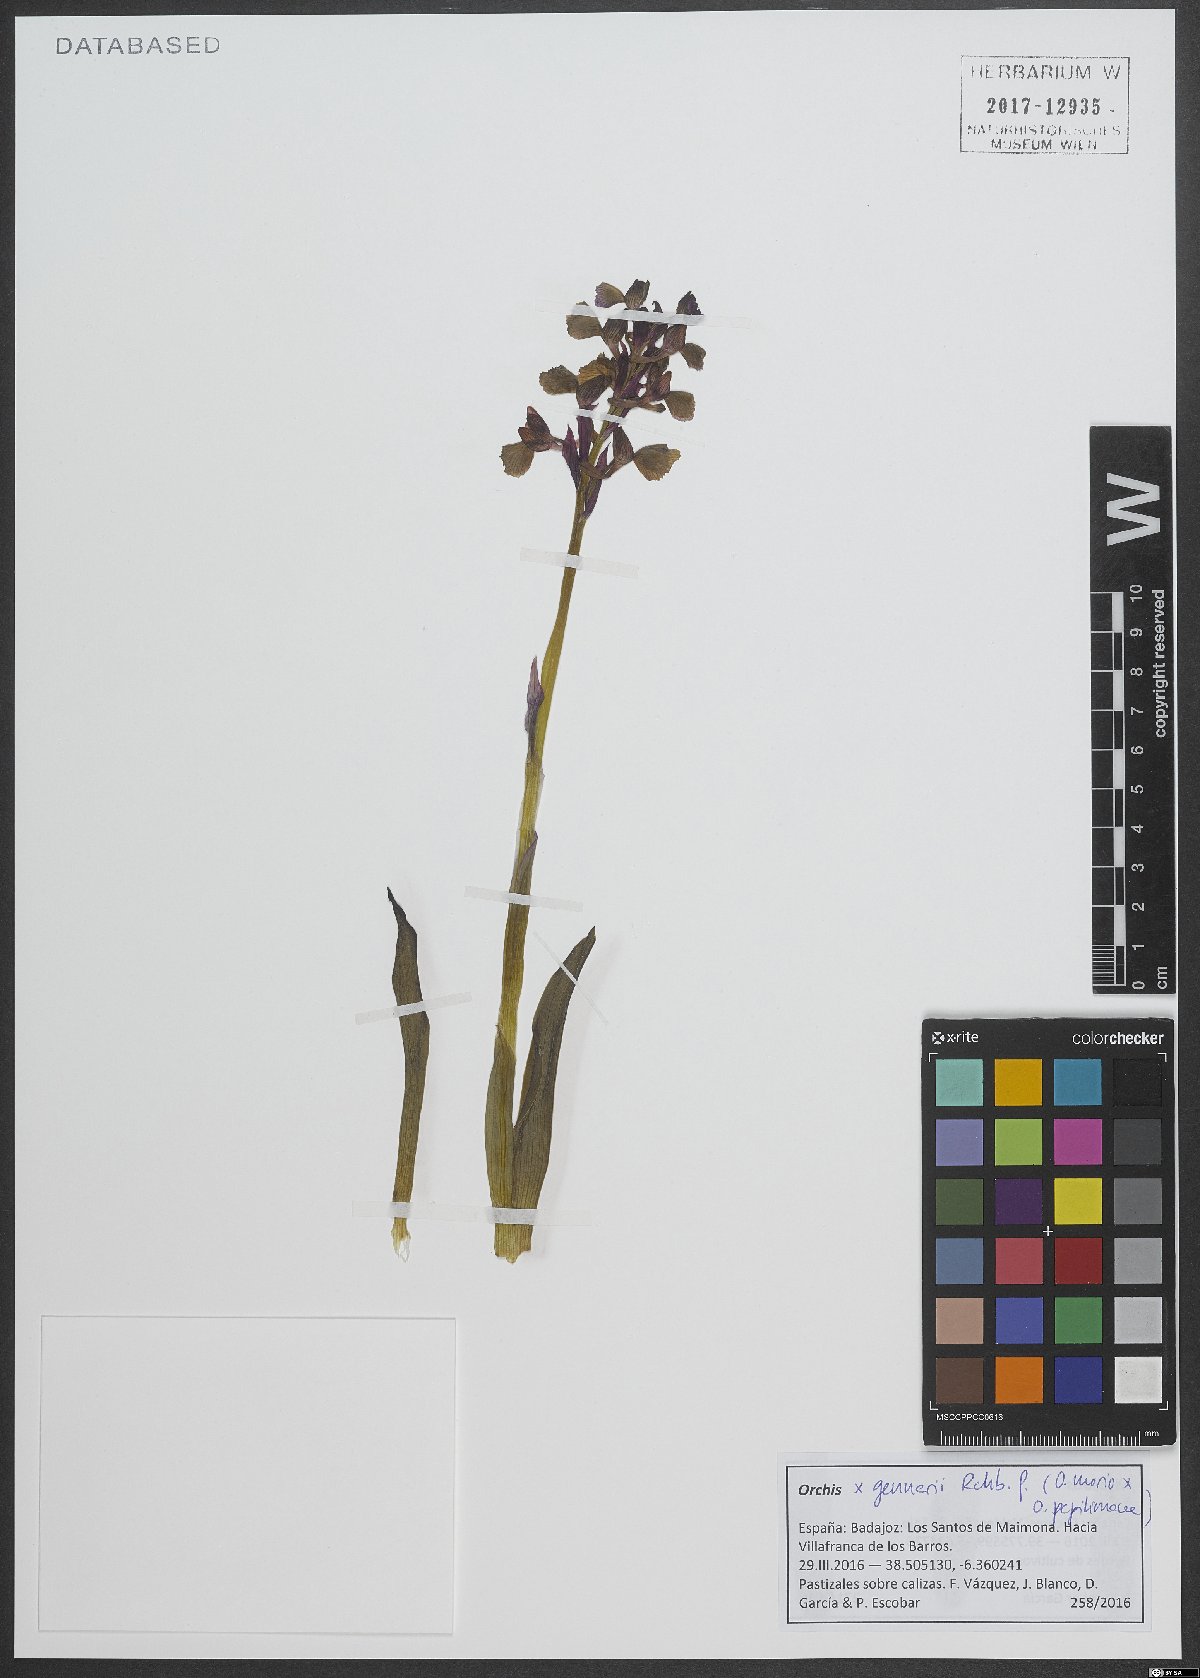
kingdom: Plantae
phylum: Tracheophyta
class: Liliopsida
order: Asparagales
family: Orchidaceae
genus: Anacamptis
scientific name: Anacamptis nicodemi
